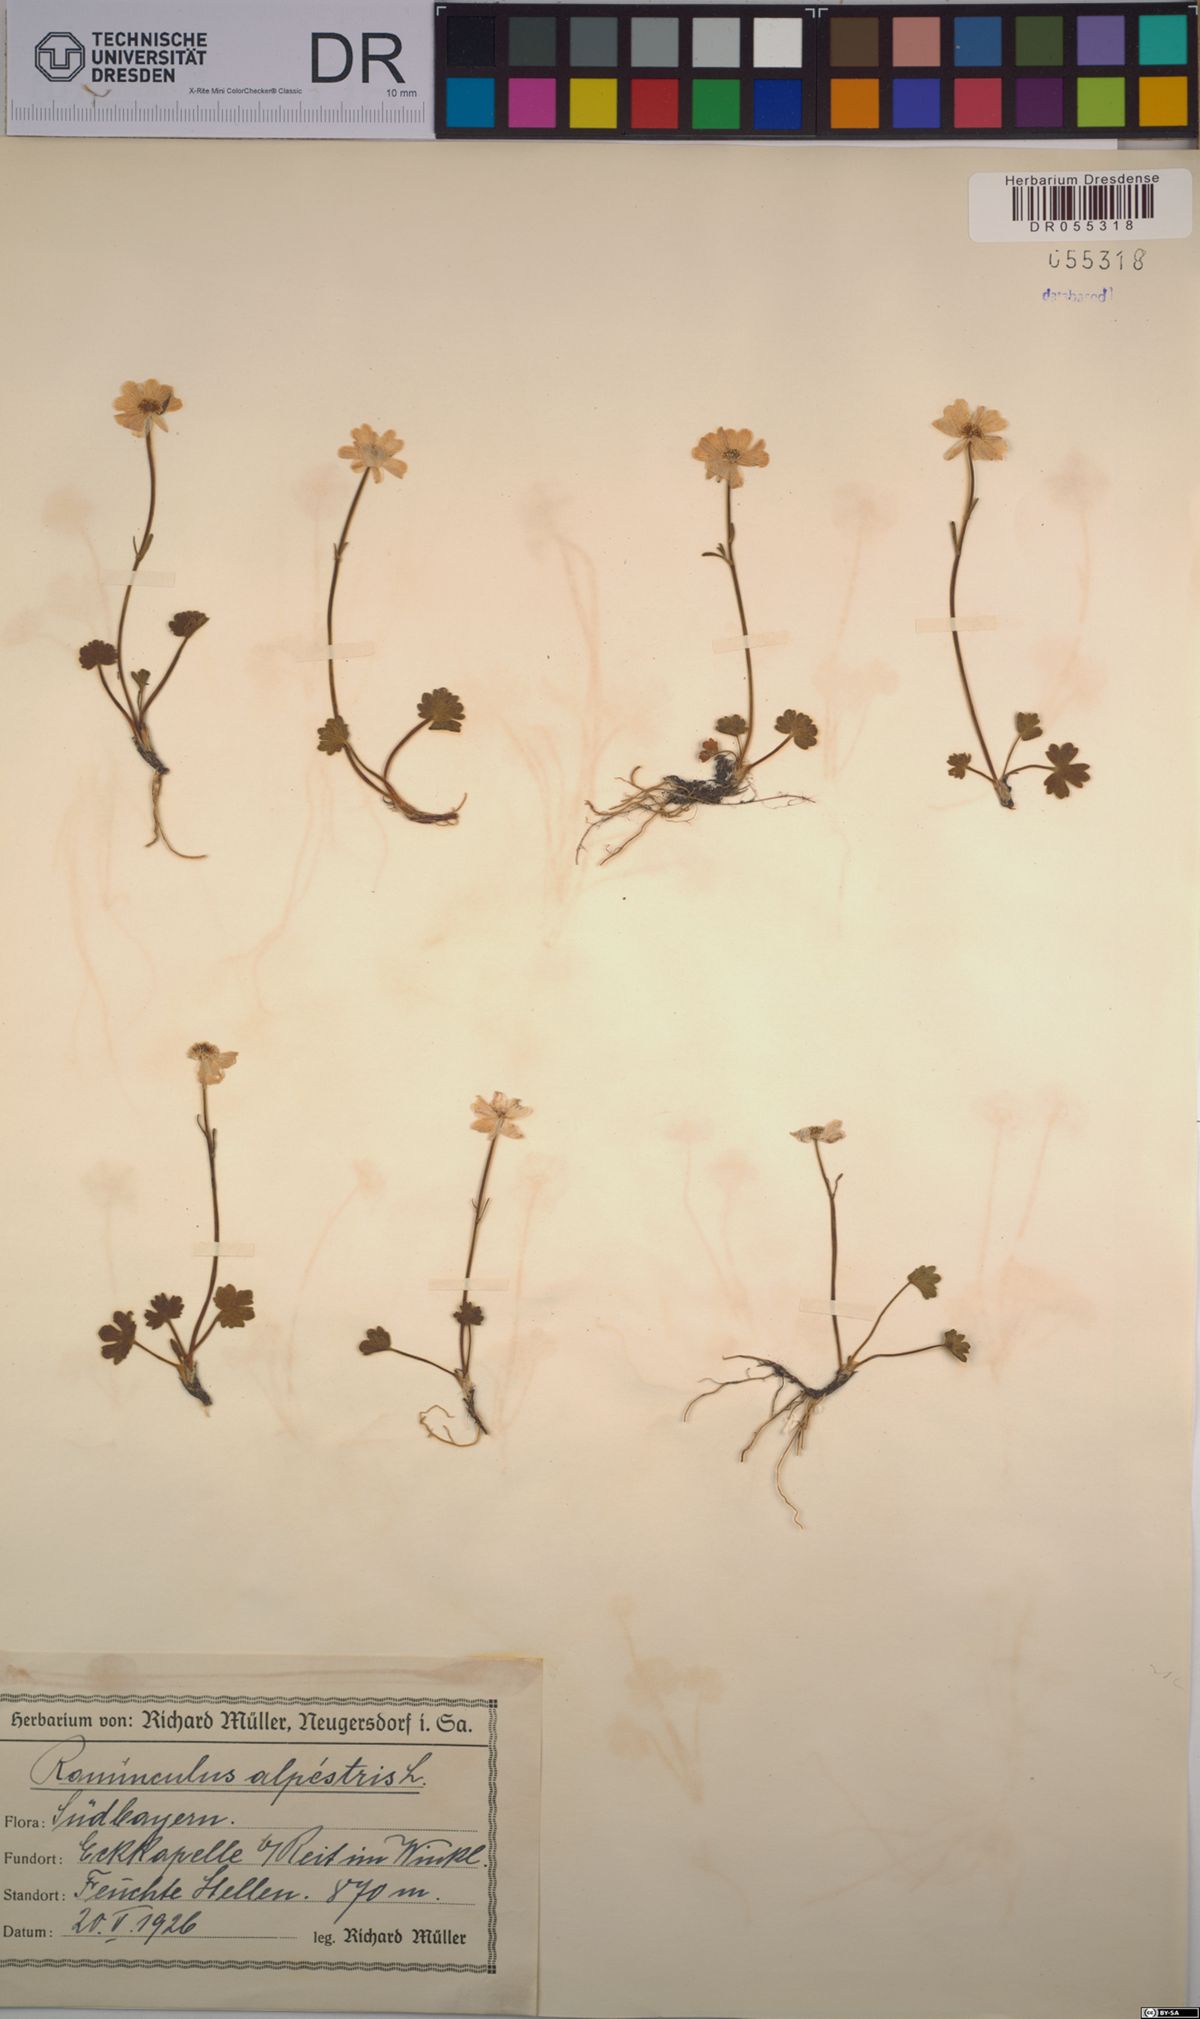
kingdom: Plantae
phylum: Tracheophyta
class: Magnoliopsida
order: Ranunculales
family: Ranunculaceae
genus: Ranunculus
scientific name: Ranunculus alpestris
